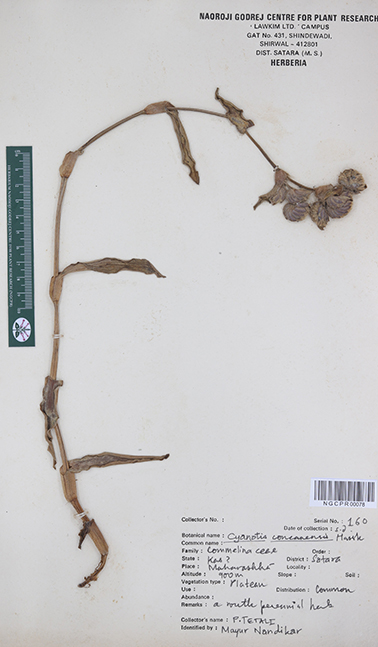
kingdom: Plantae
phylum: Tracheophyta
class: Liliopsida
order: Commelinales
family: Commelinaceae
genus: Cyanotis
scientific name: Cyanotis tuberosa
